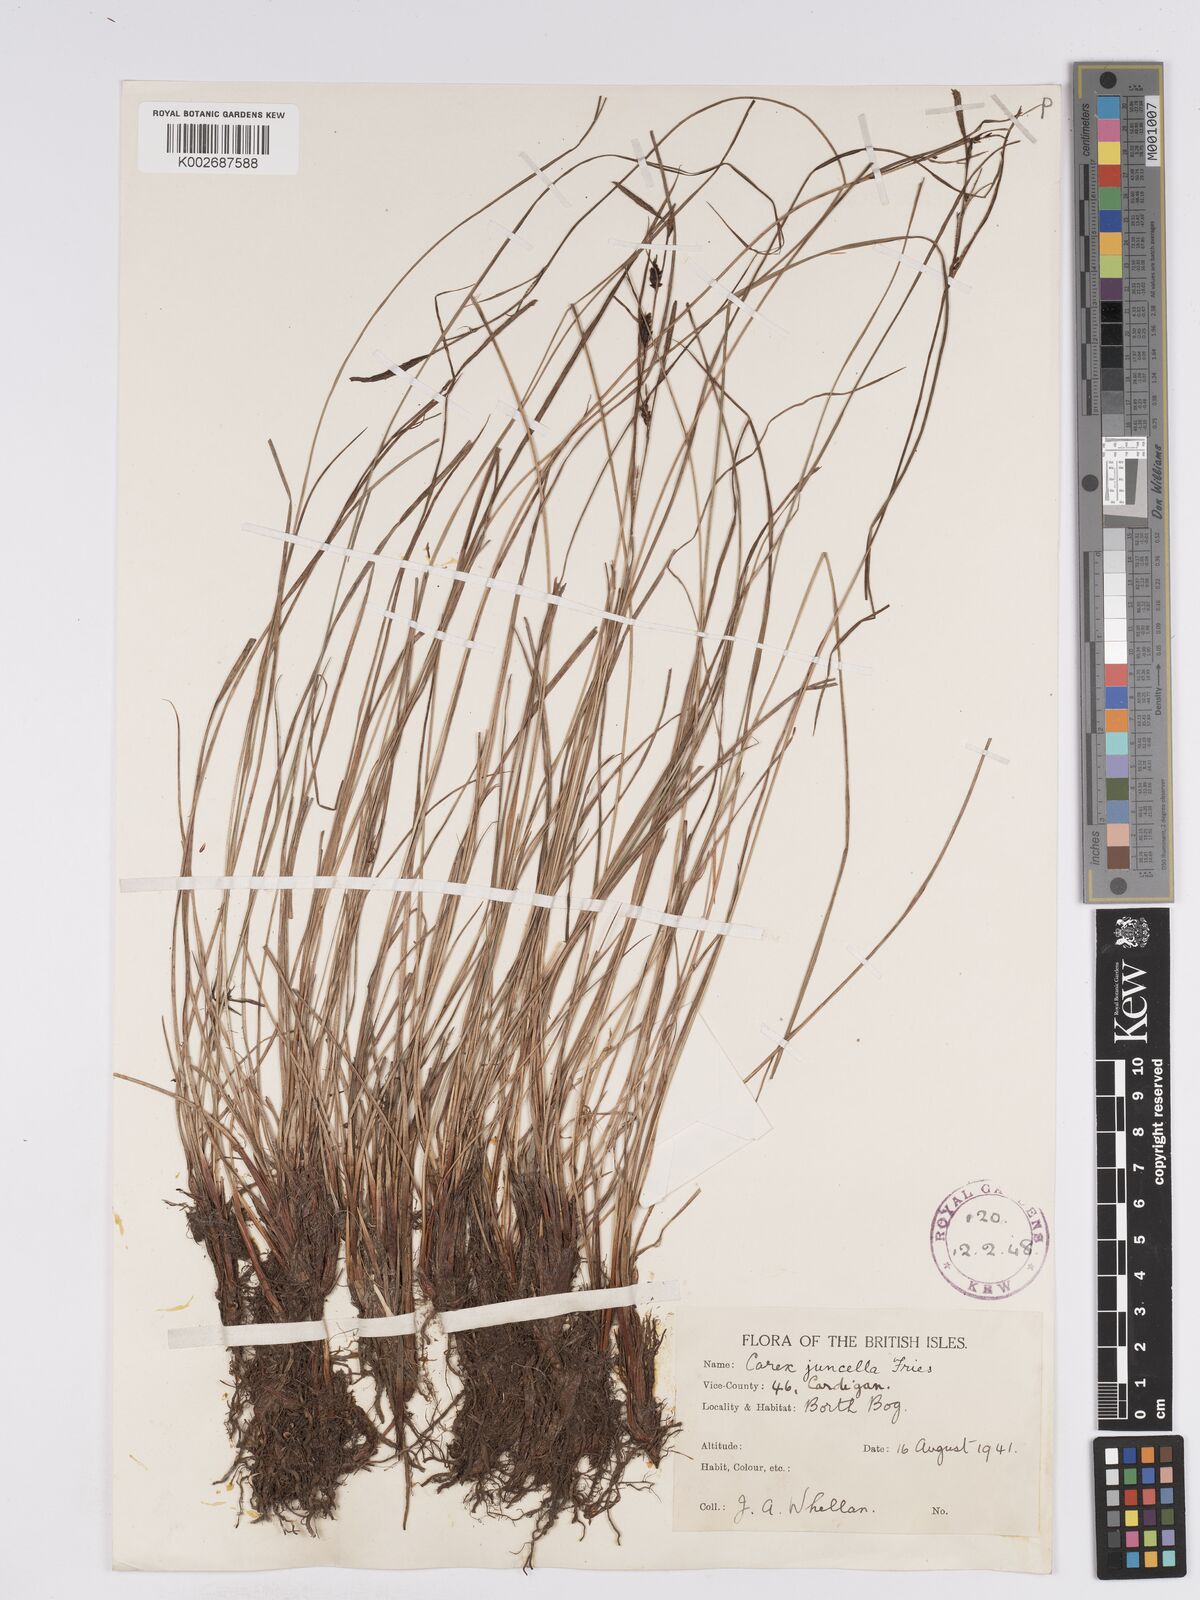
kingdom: Plantae
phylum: Tracheophyta
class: Liliopsida
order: Poales
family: Cyperaceae
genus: Carex
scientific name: Carex nigra
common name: Common sedge
